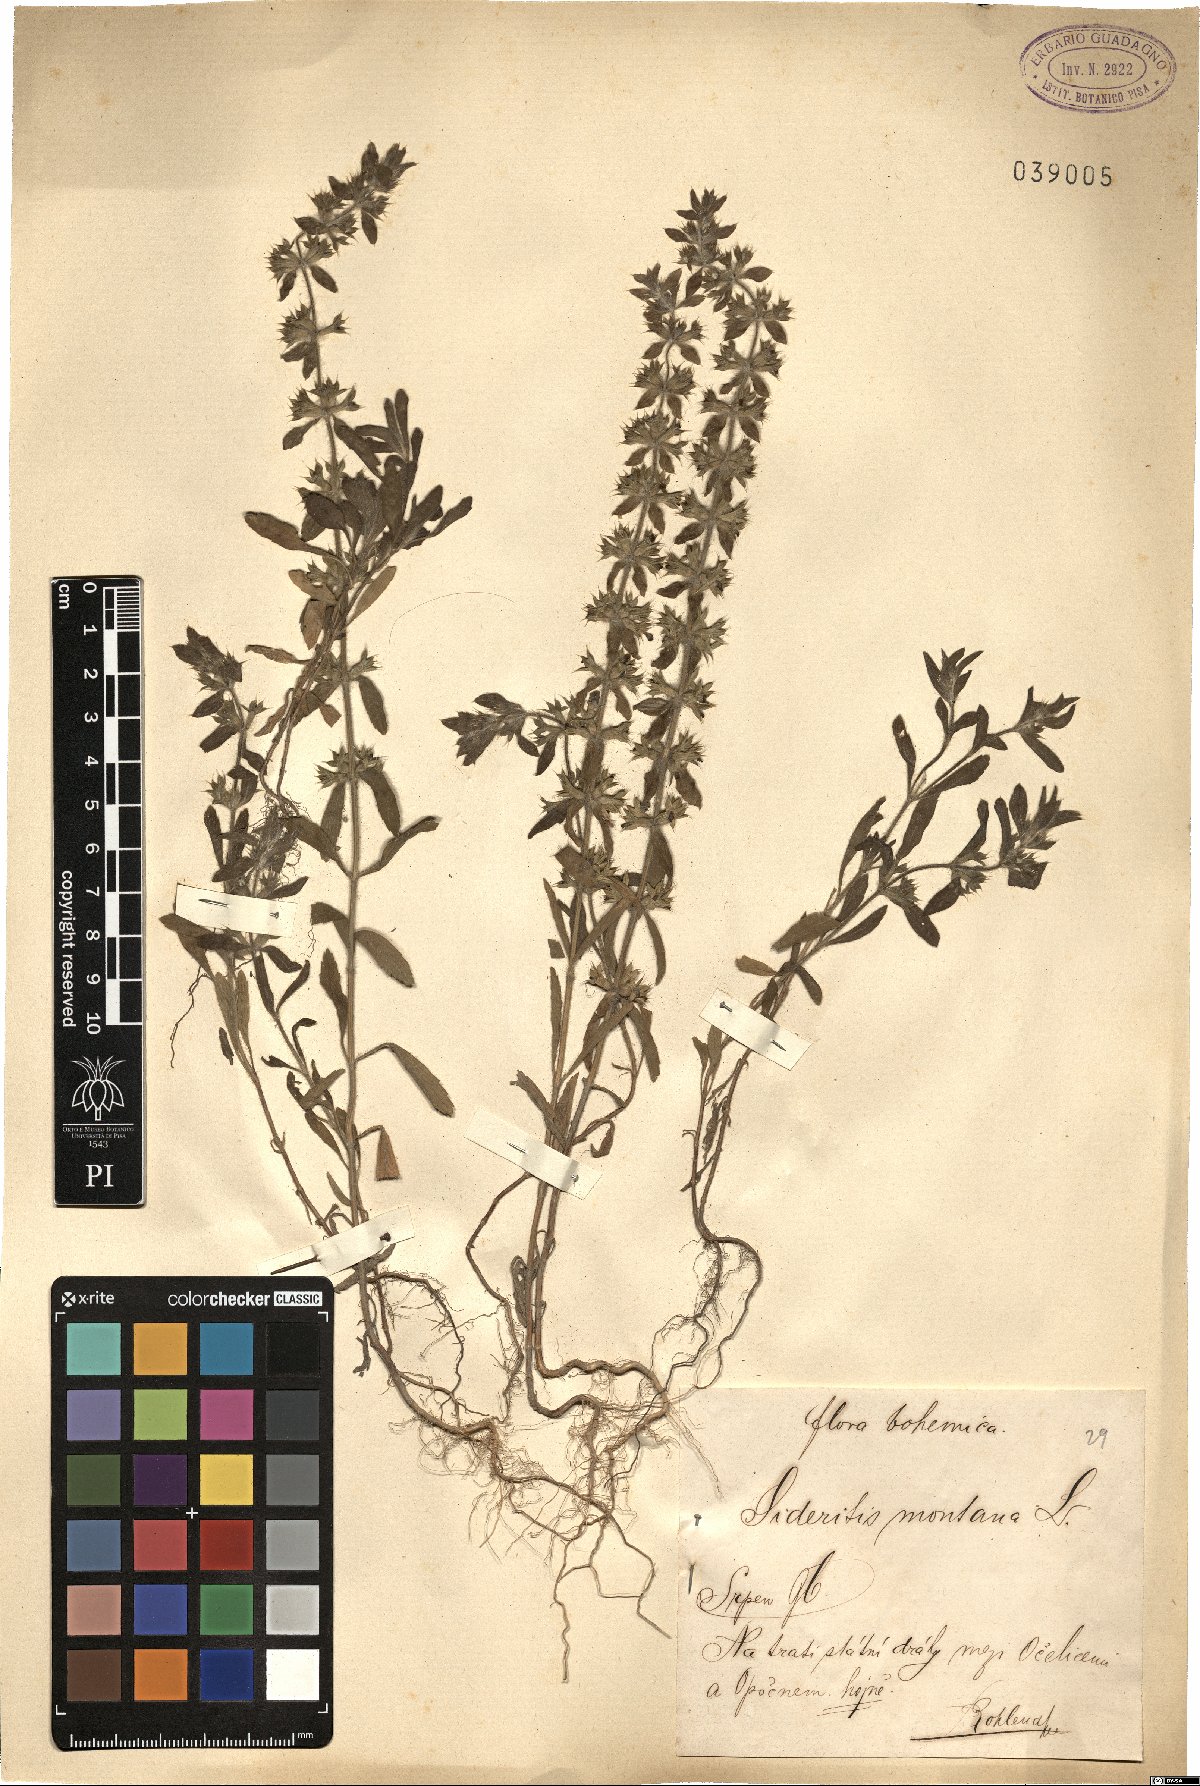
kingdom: Plantae
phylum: Tracheophyta
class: Magnoliopsida
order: Lamiales
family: Lamiaceae
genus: Sideritis
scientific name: Sideritis montana
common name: Mountain ironwort
